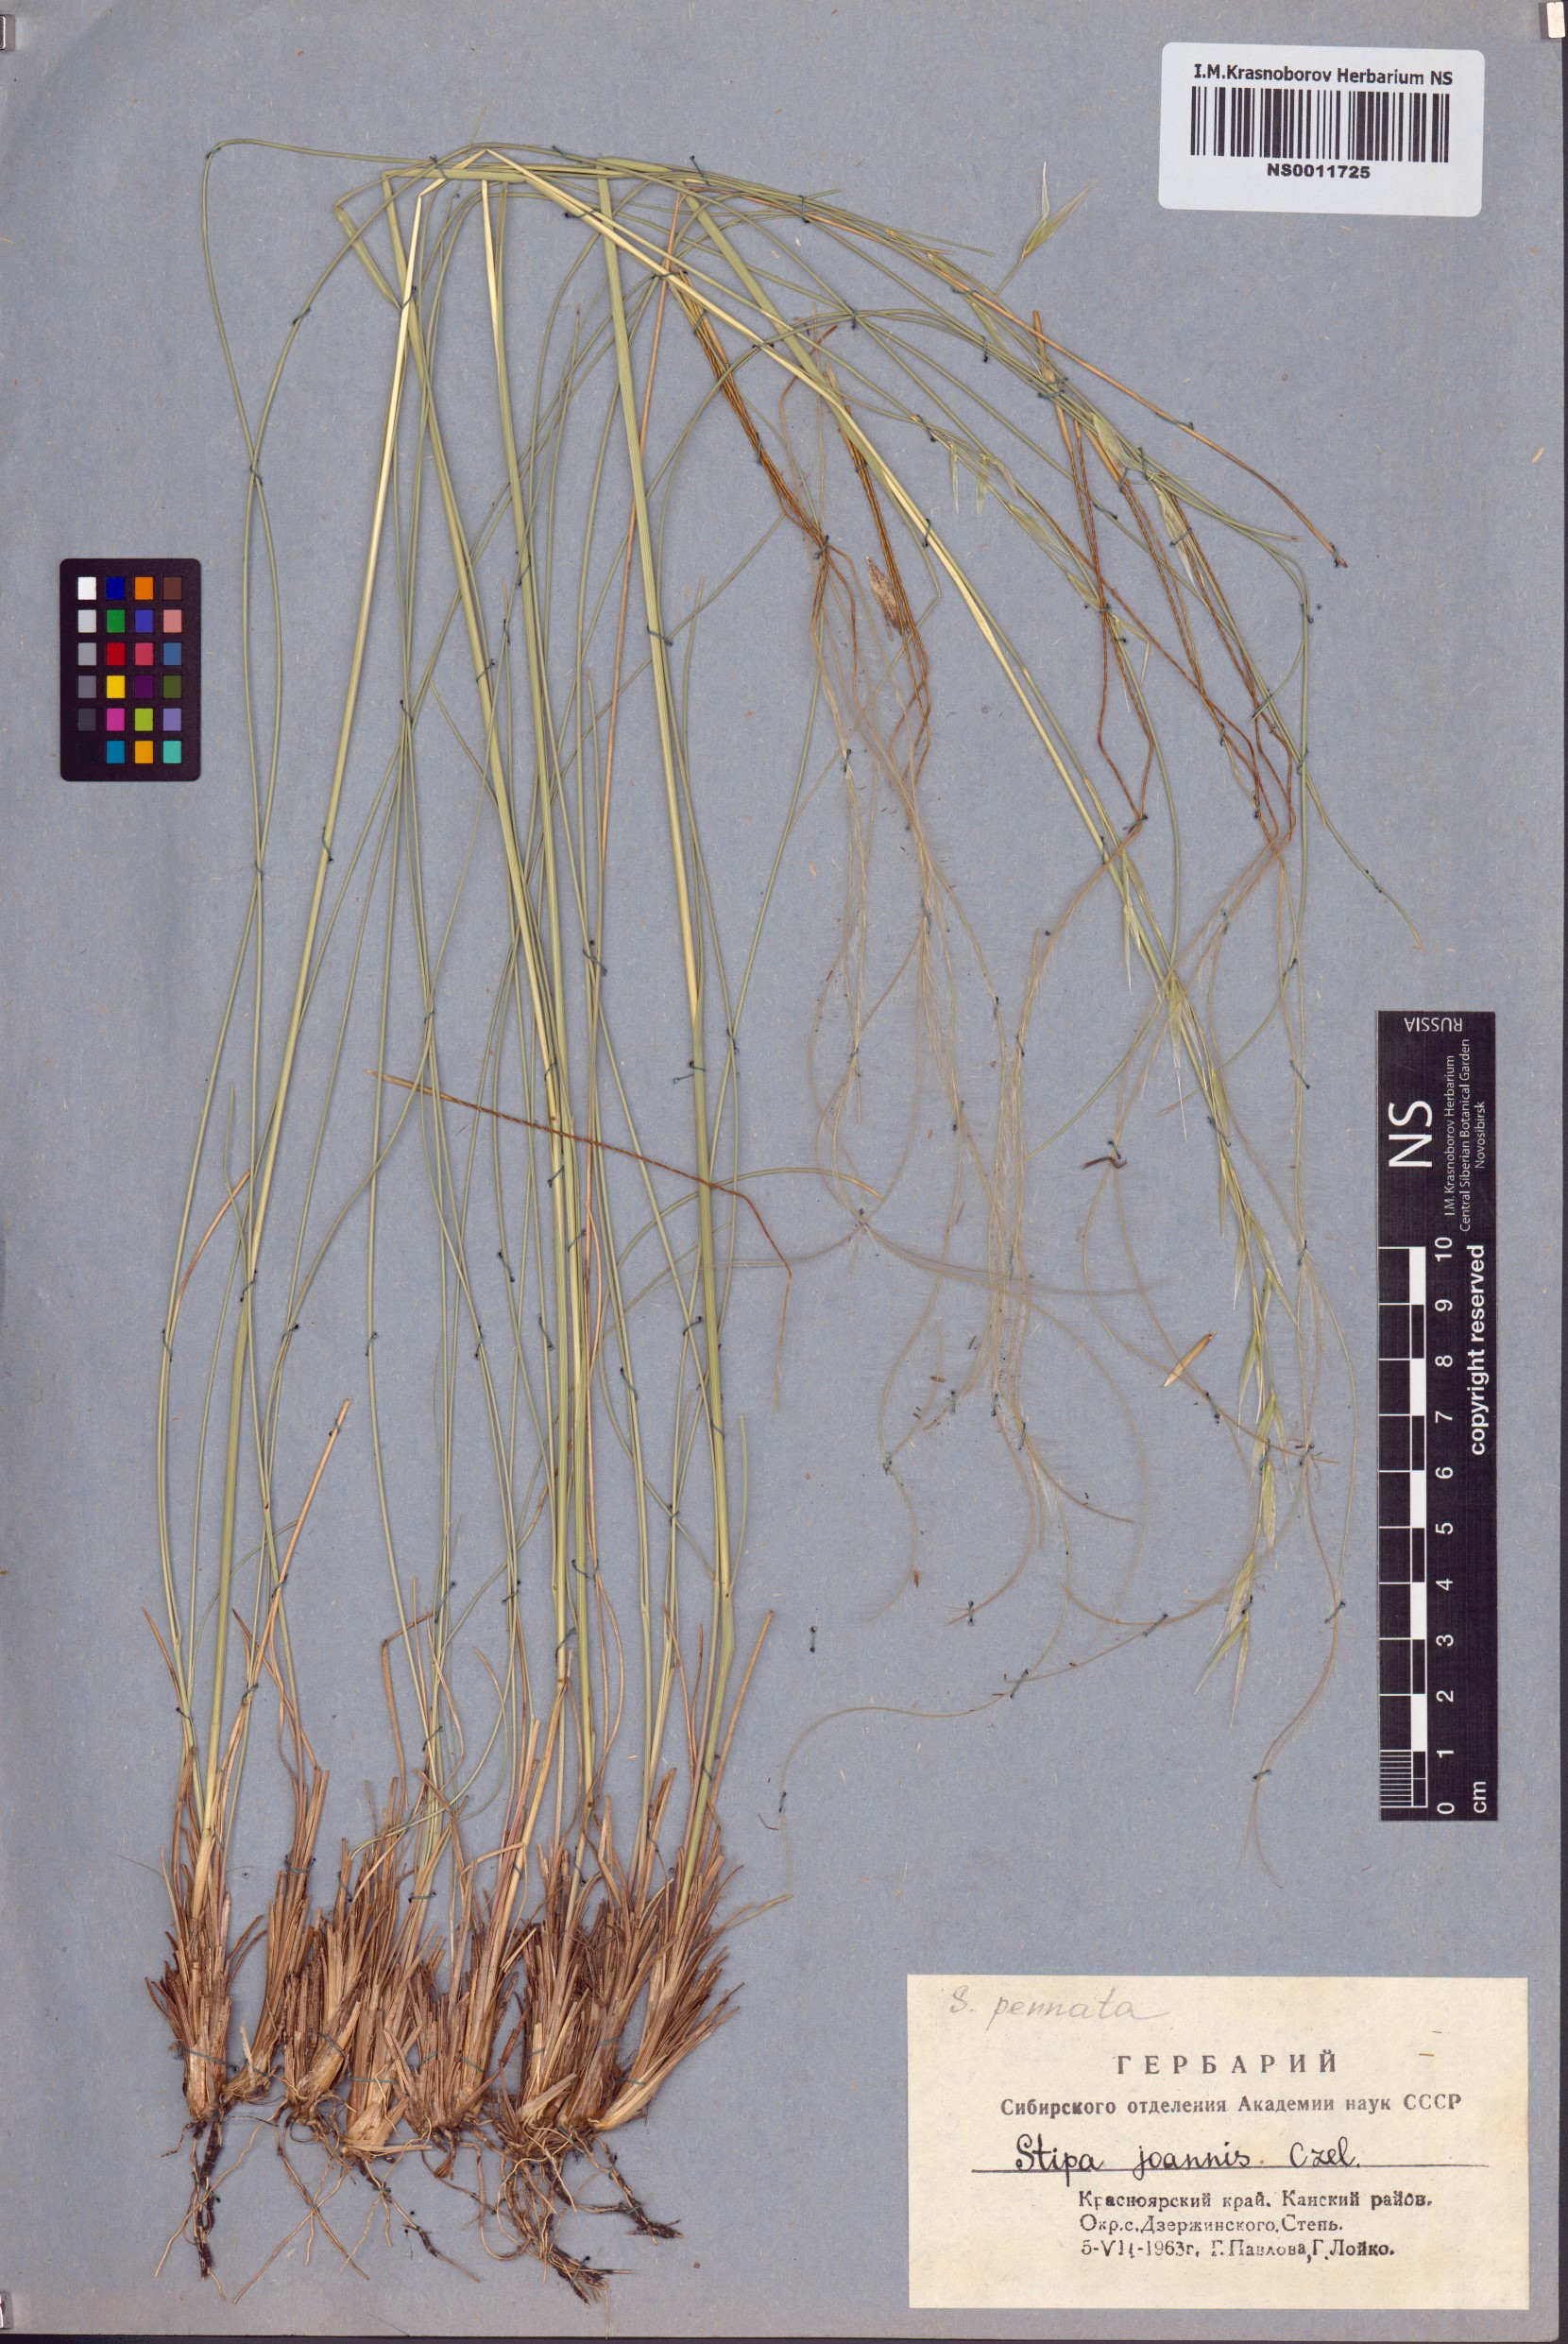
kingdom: Plantae
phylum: Tracheophyta
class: Liliopsida
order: Poales
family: Poaceae
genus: Stipa
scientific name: Stipa pennata
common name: European feather grass
